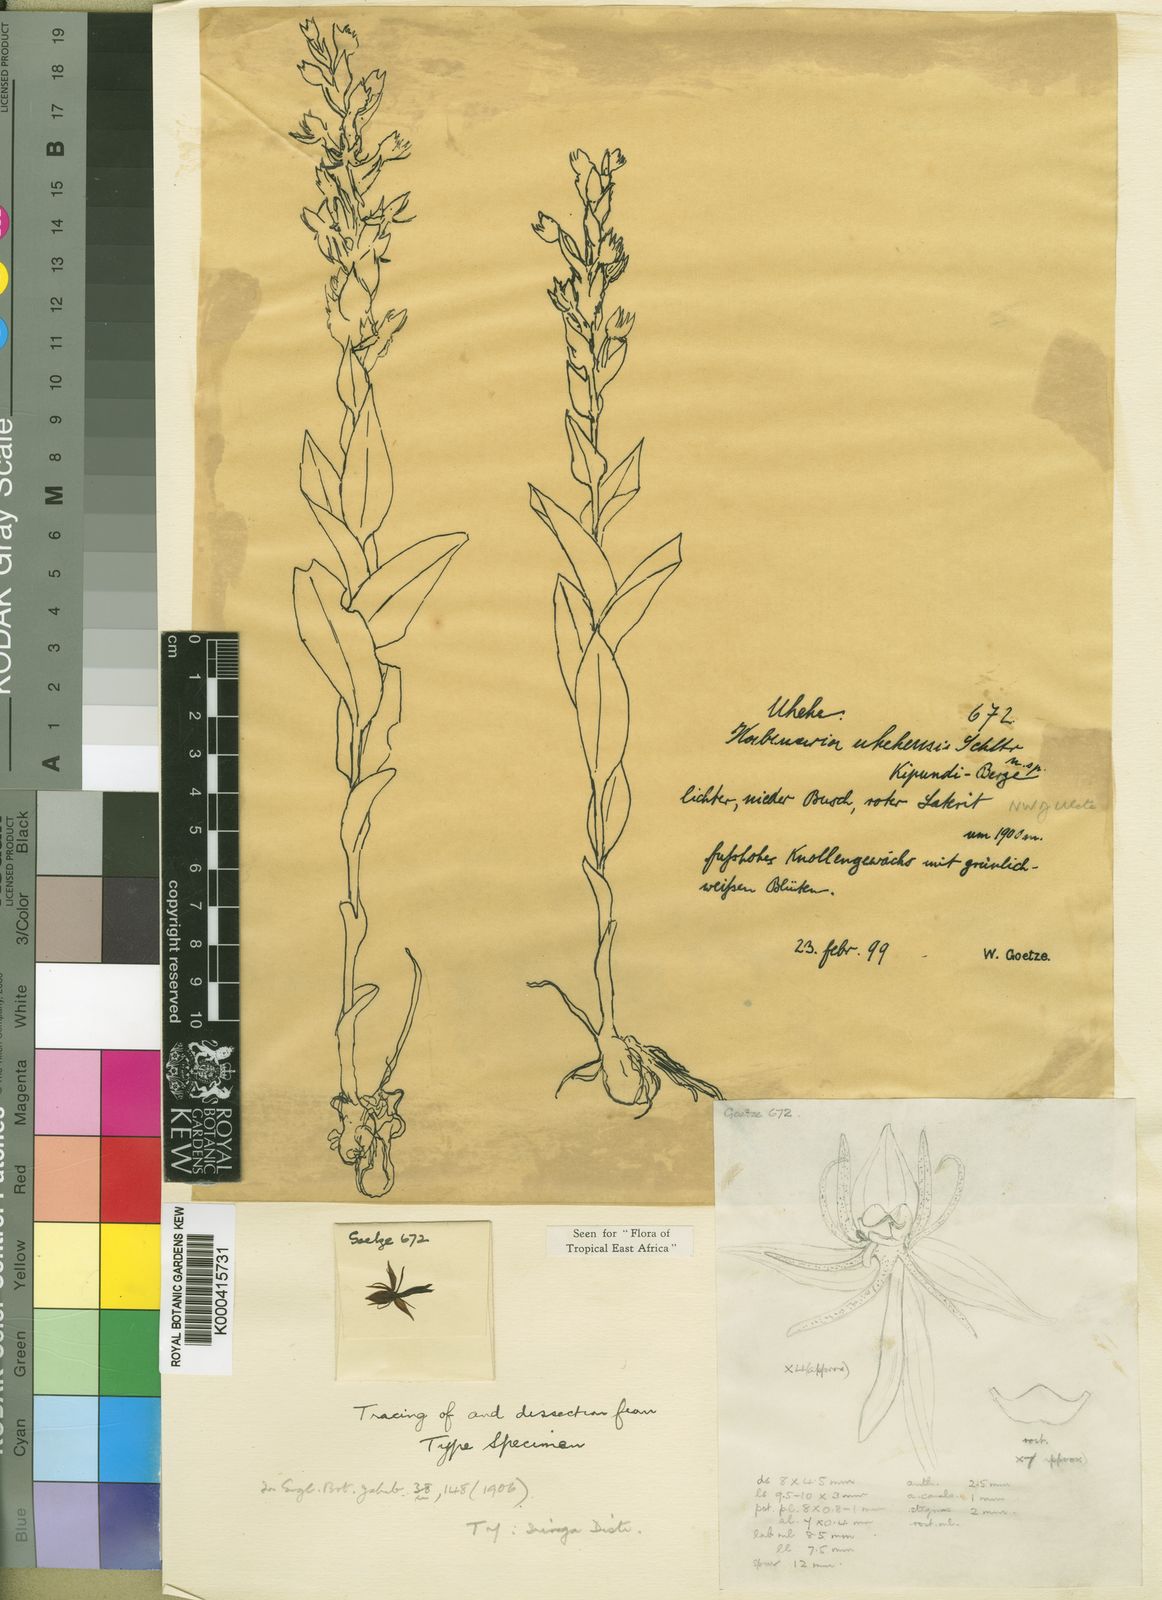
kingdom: Plantae
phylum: Tracheophyta
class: Liliopsida
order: Asparagales
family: Orchidaceae
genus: Habenaria
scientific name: Habenaria uhehensis
